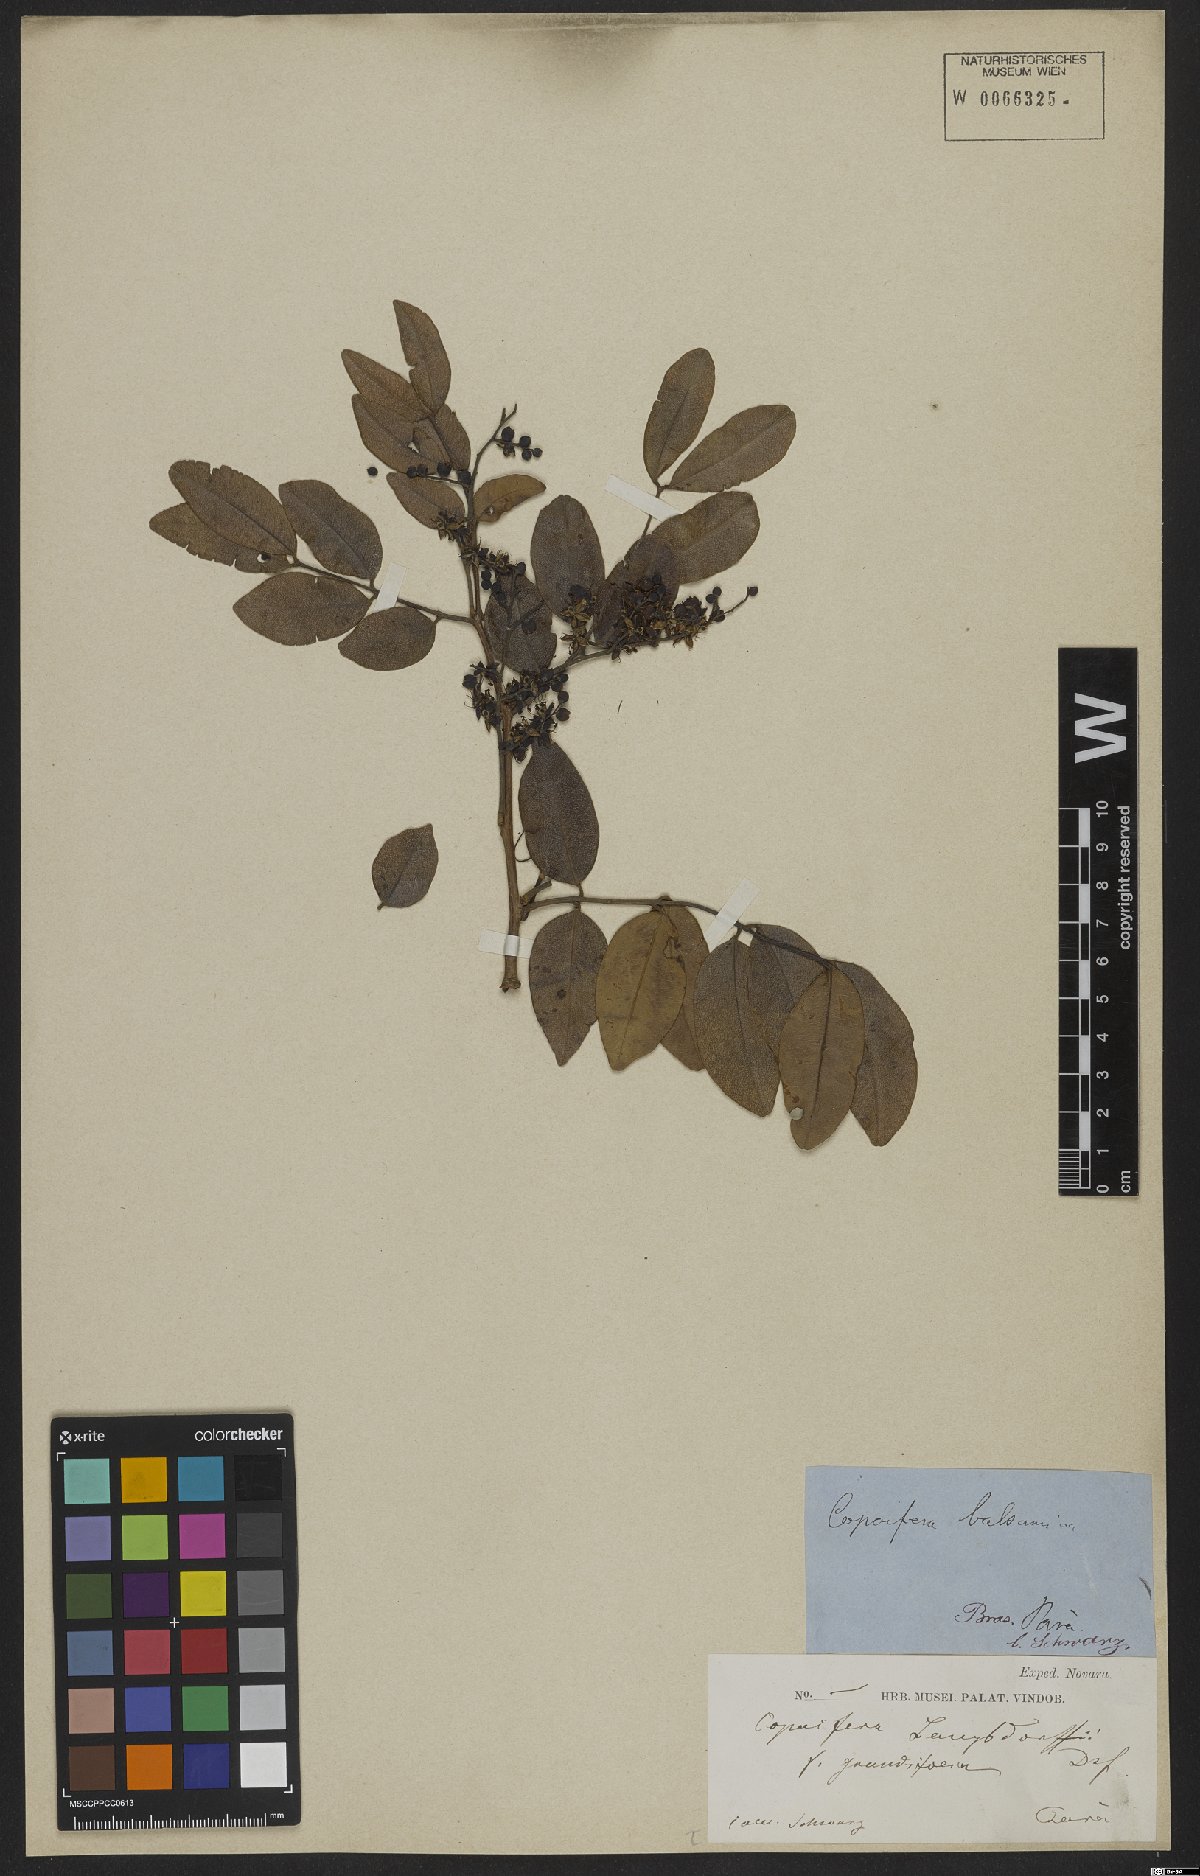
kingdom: Plantae
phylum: Tracheophyta
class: Magnoliopsida
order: Fabales
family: Fabaceae
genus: Copaifera
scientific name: Copaifera langsdorffii
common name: Brazilian diesel tree
